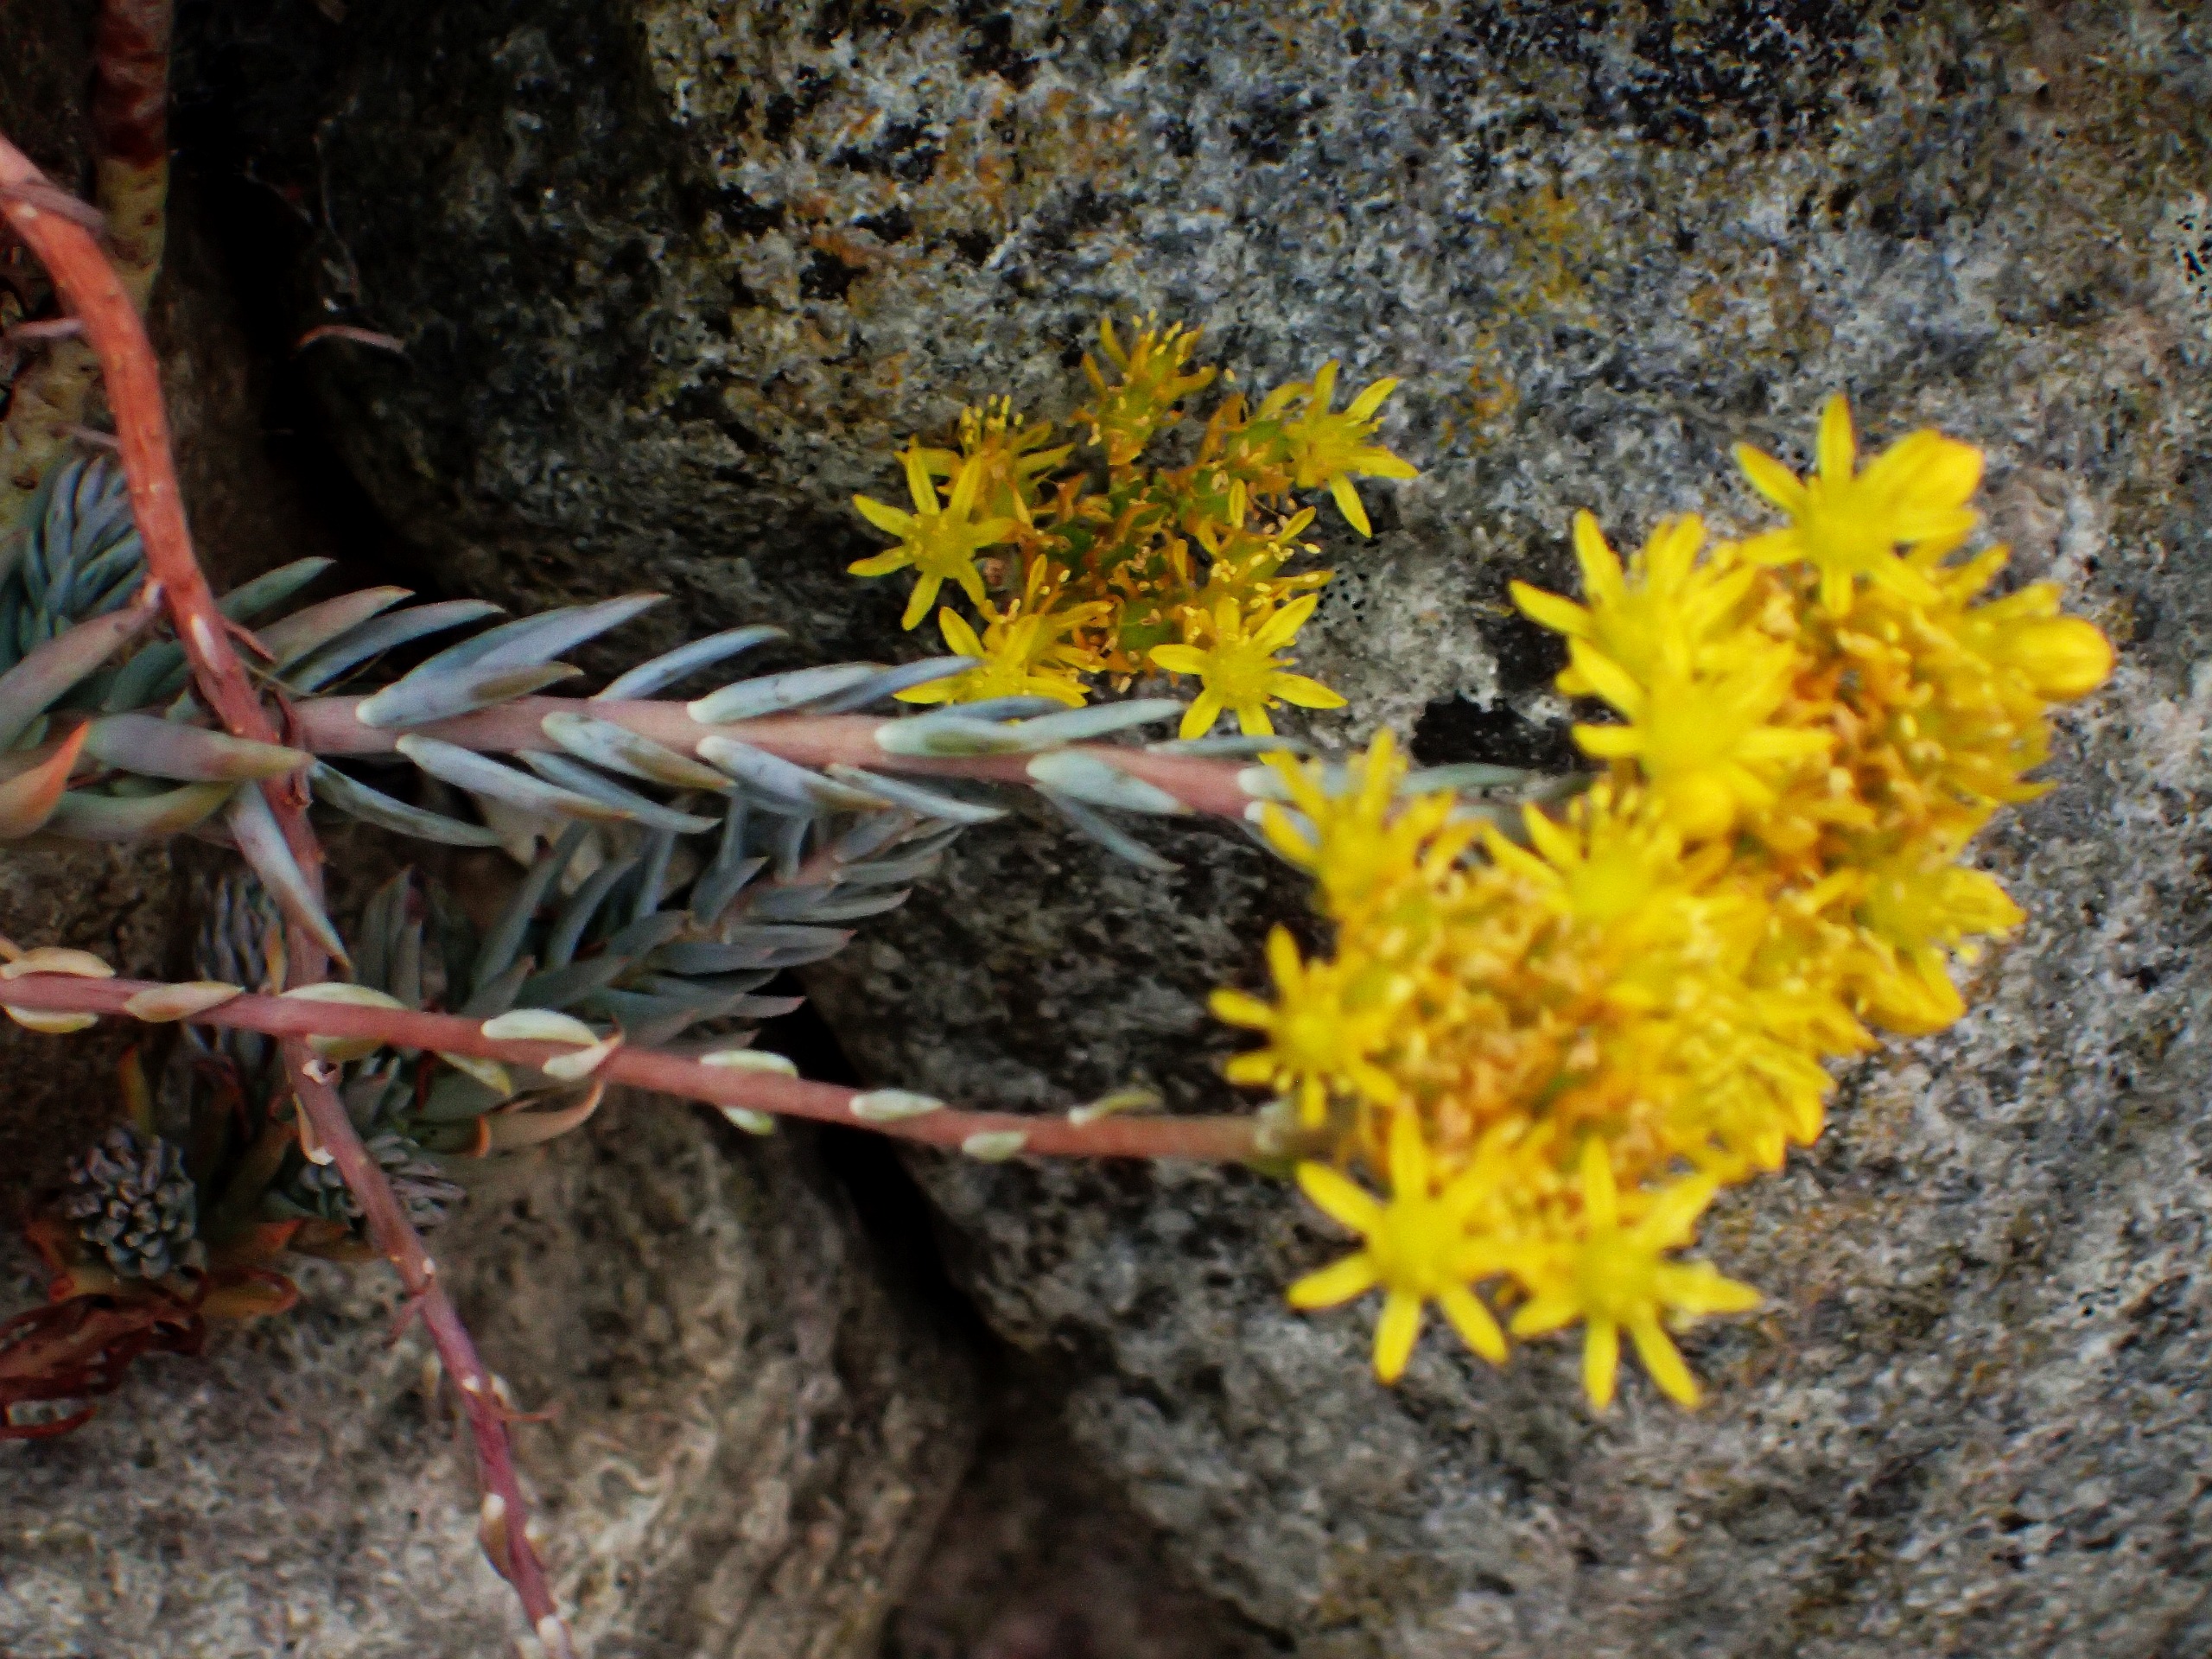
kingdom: Plantae
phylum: Tracheophyta
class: Magnoliopsida
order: Saxifragales
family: Crassulaceae
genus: Petrosedum
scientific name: Petrosedum rupestre
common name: Bjerg-stenurt
